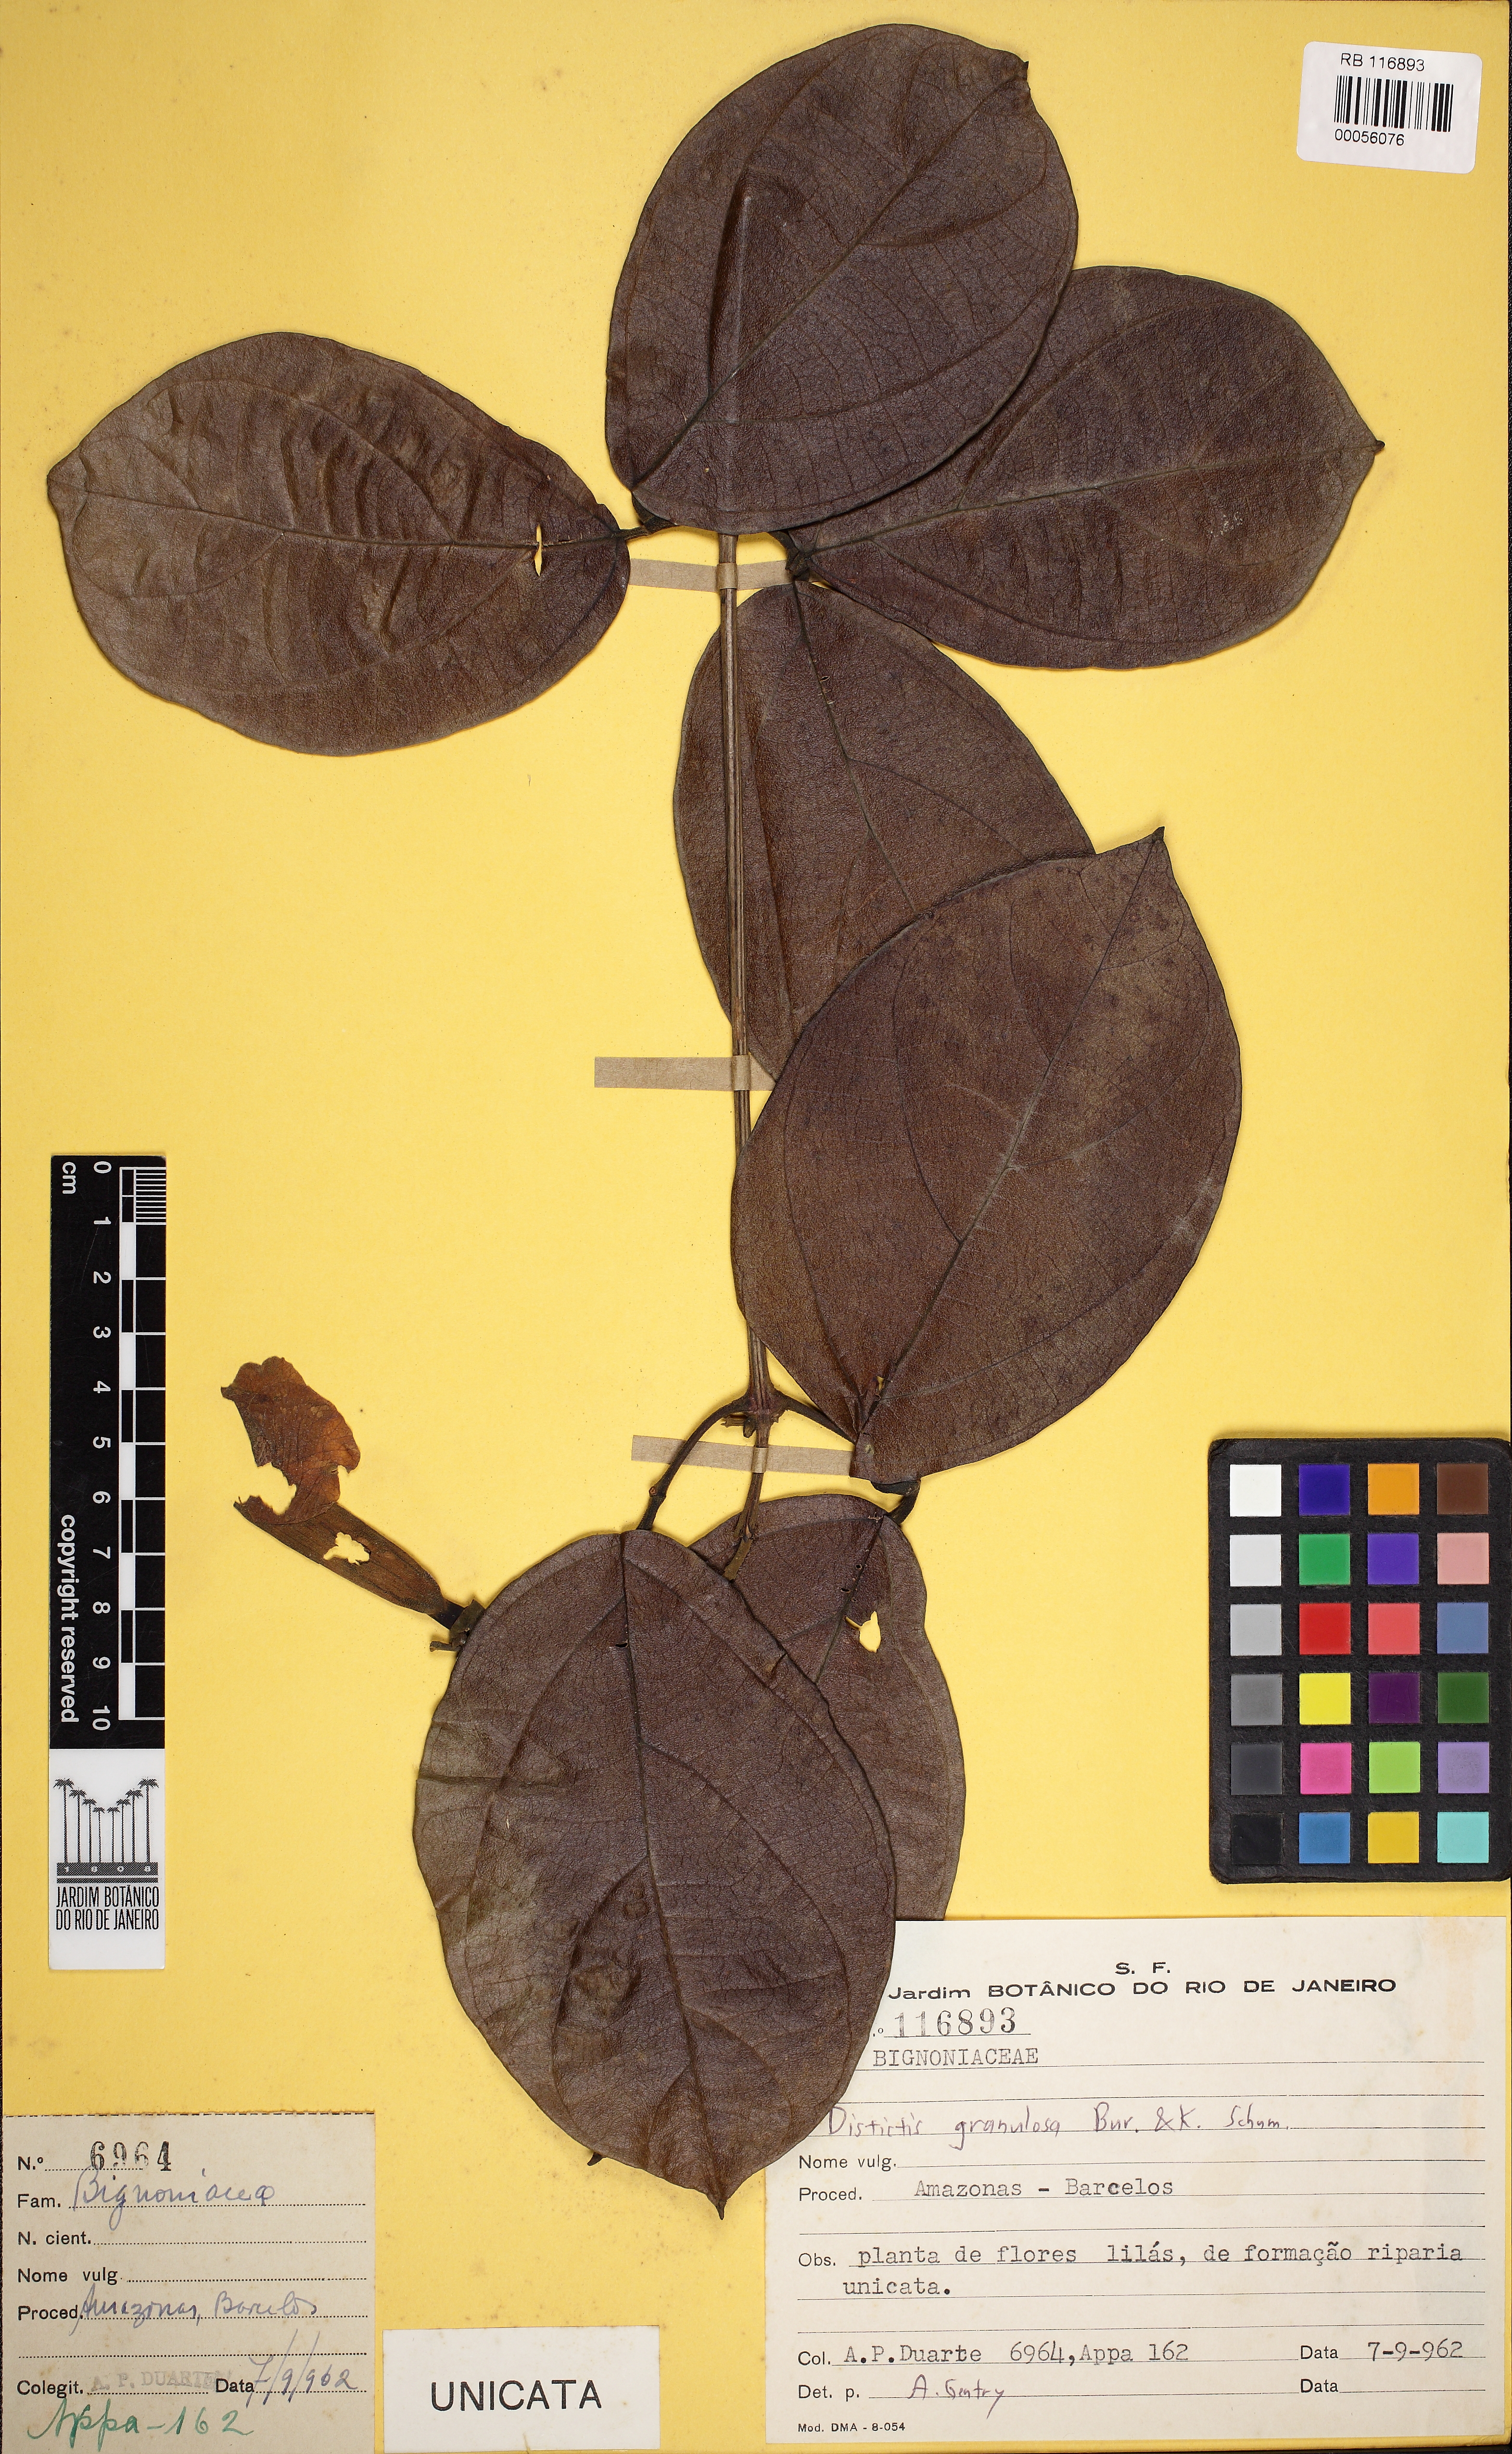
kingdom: Plantae
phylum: Tracheophyta
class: Magnoliopsida
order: Lamiales
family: Bignoniaceae
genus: Amphilophium
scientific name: Amphilophium granulosum
